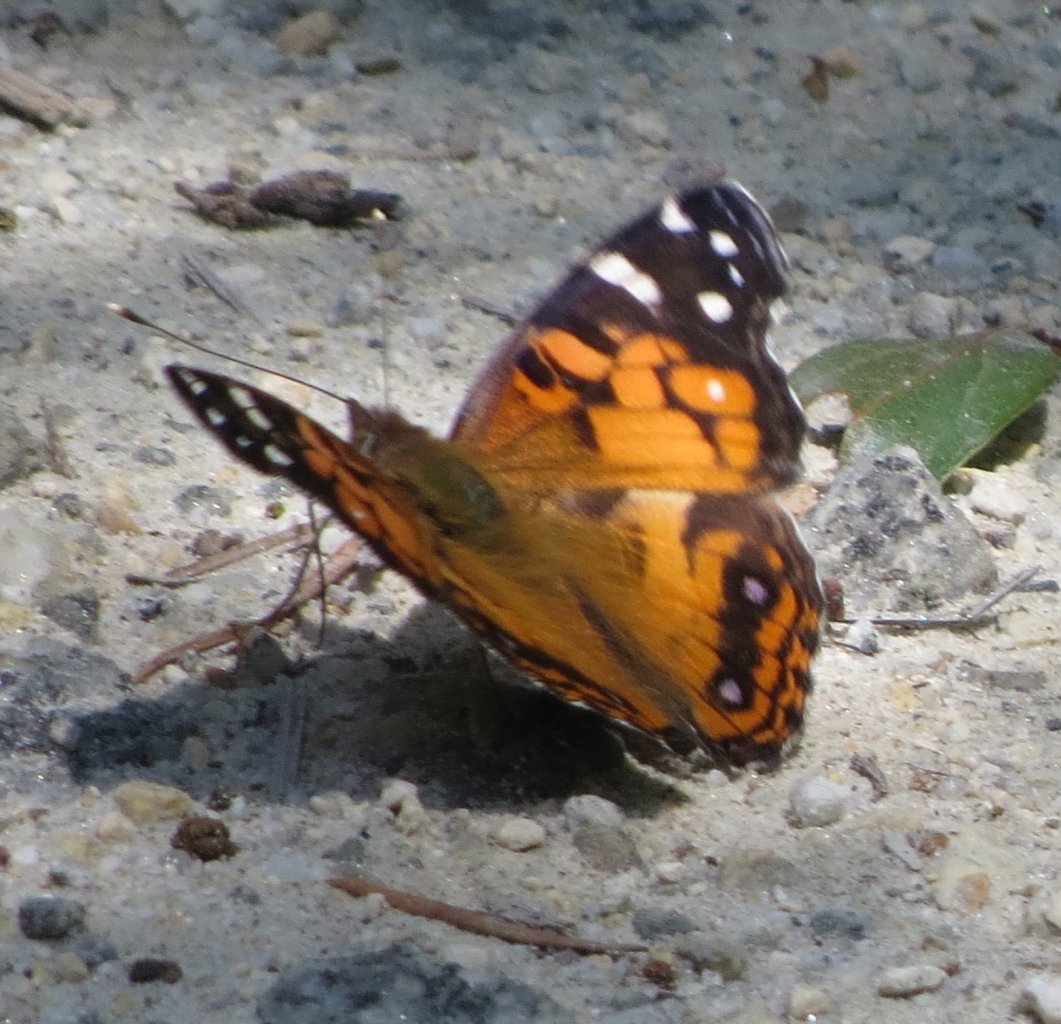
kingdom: Animalia
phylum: Arthropoda
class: Insecta
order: Lepidoptera
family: Nymphalidae
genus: Vanessa
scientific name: Vanessa virginiensis
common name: American Lady
